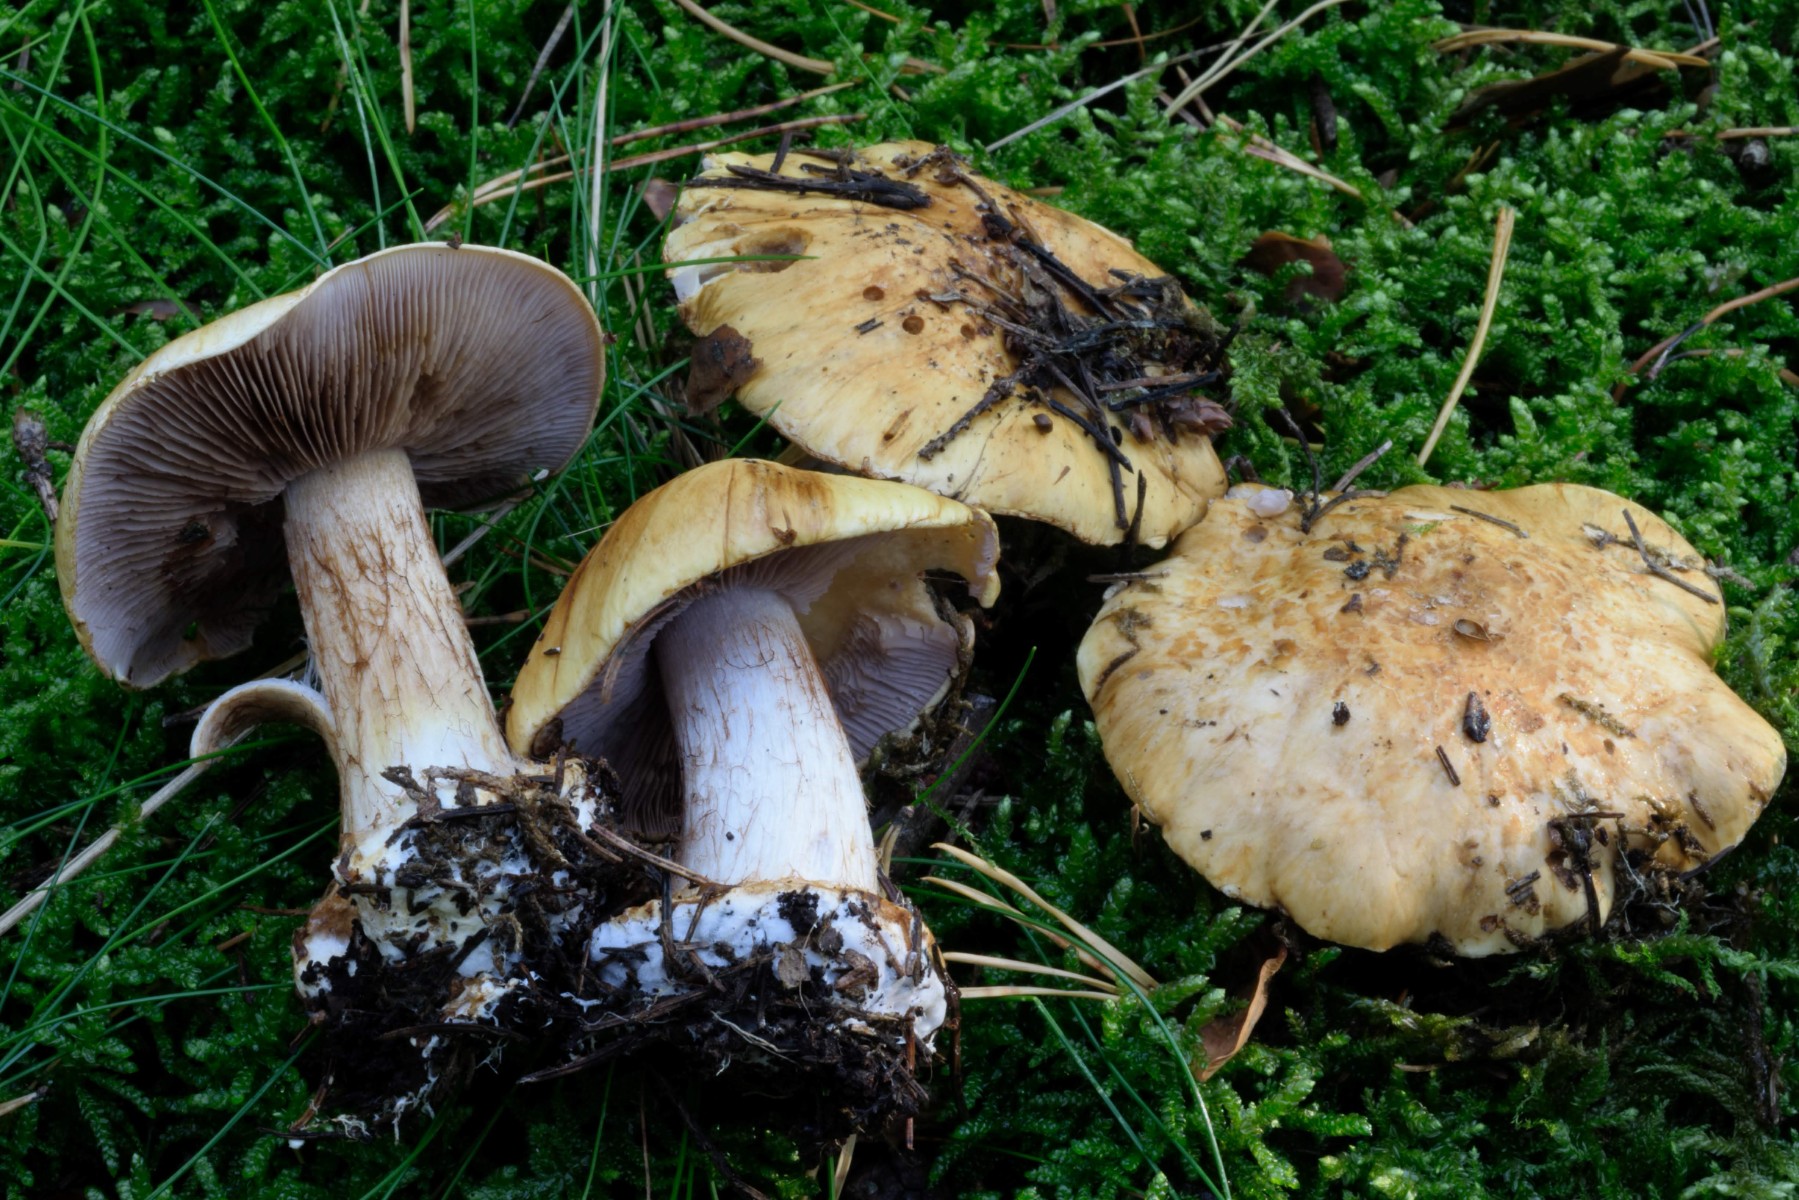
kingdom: Fungi
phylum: Basidiomycota
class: Agaricomycetes
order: Agaricales
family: Cortinariaceae
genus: Calonarius
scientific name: Calonarius barbarorum
